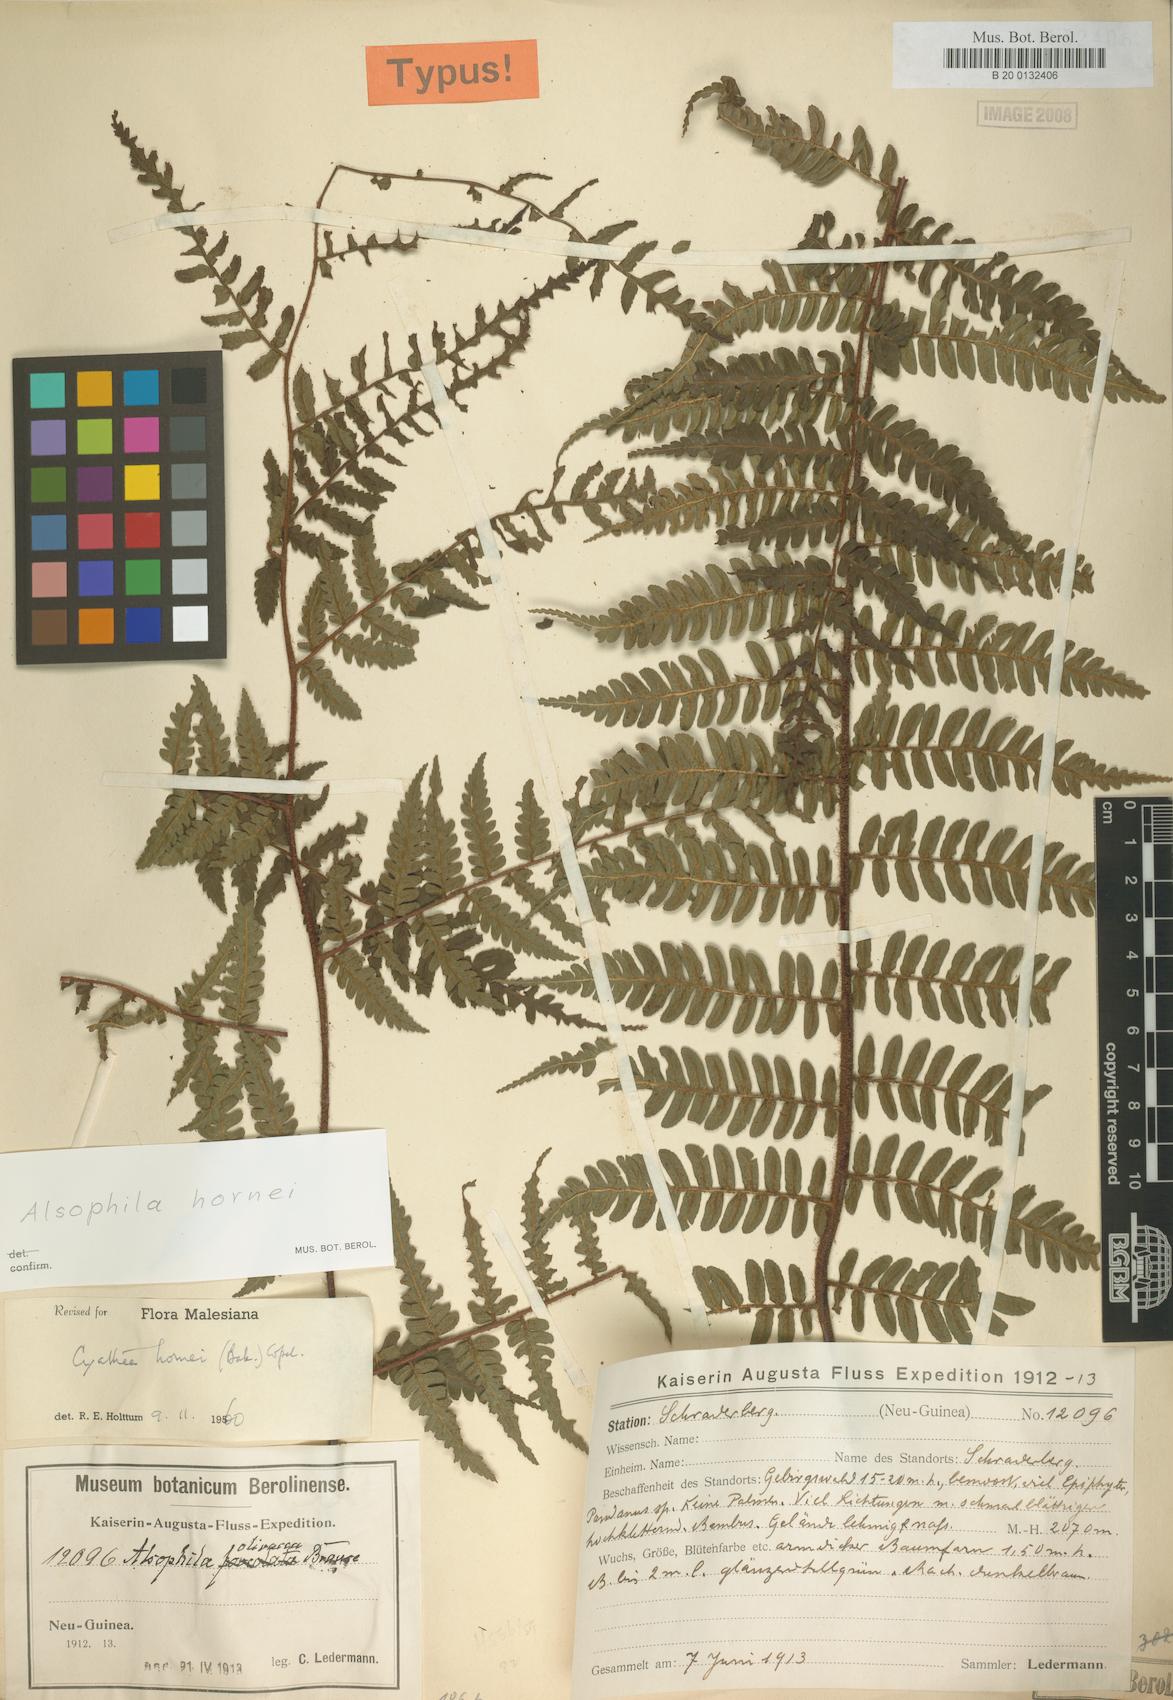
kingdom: Plantae
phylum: Tracheophyta
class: Polypodiopsida
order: Cyatheales
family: Cyatheaceae
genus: Gymnosphaera
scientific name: Gymnosphaera hornei
